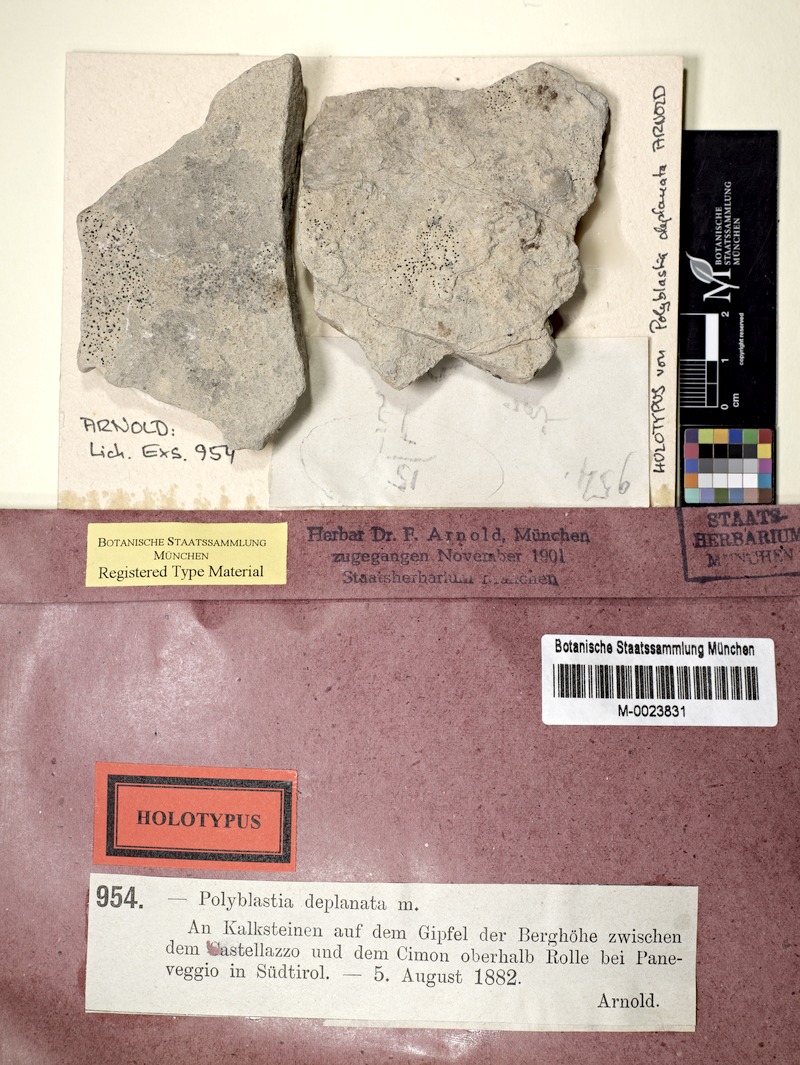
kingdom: Fungi
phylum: Ascomycota
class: Eurotiomycetes
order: Verrucariales
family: Verrucariaceae
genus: Polyblastia
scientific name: Polyblastia deplanata
